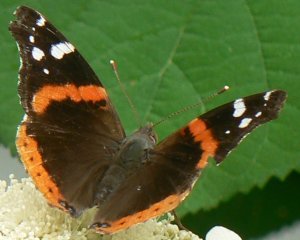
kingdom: Animalia
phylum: Arthropoda
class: Insecta
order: Lepidoptera
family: Nymphalidae
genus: Vanessa
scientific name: Vanessa atalanta
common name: Red Admiral
